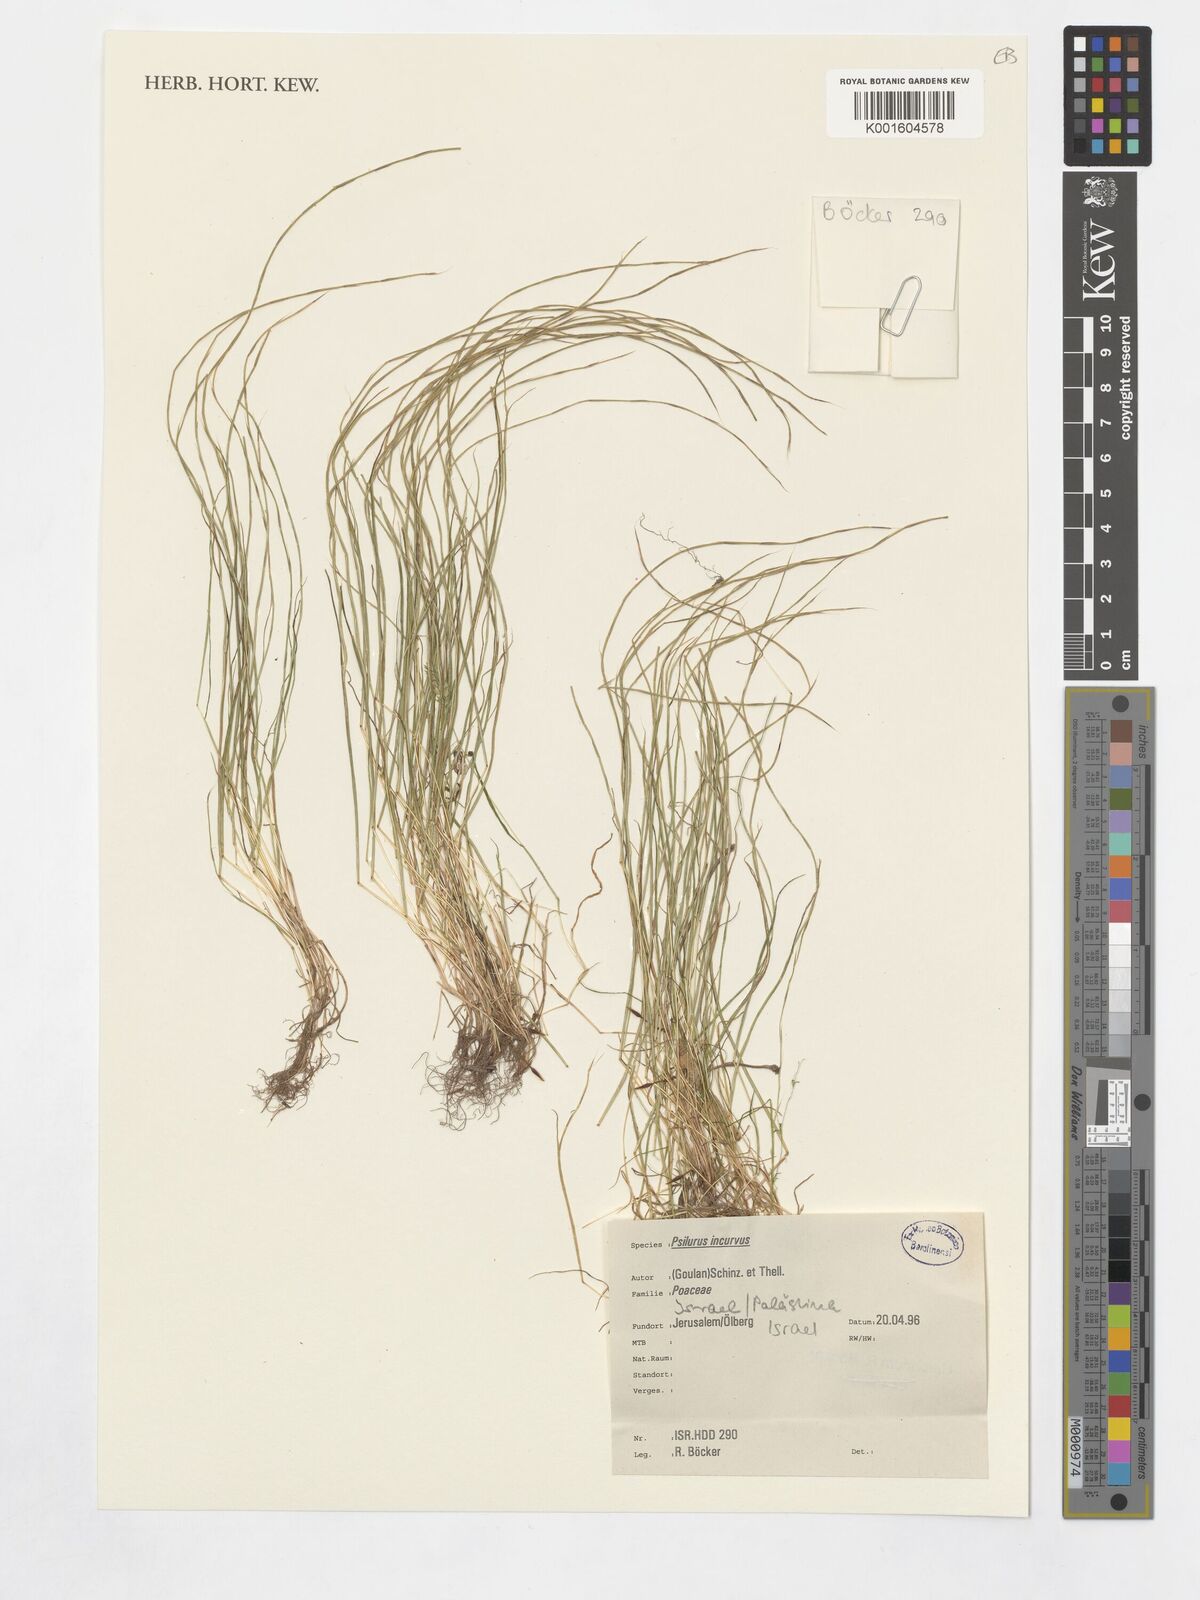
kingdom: Plantae
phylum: Tracheophyta
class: Liliopsida
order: Poales
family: Poaceae
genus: Festuca
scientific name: Festuca incurva
